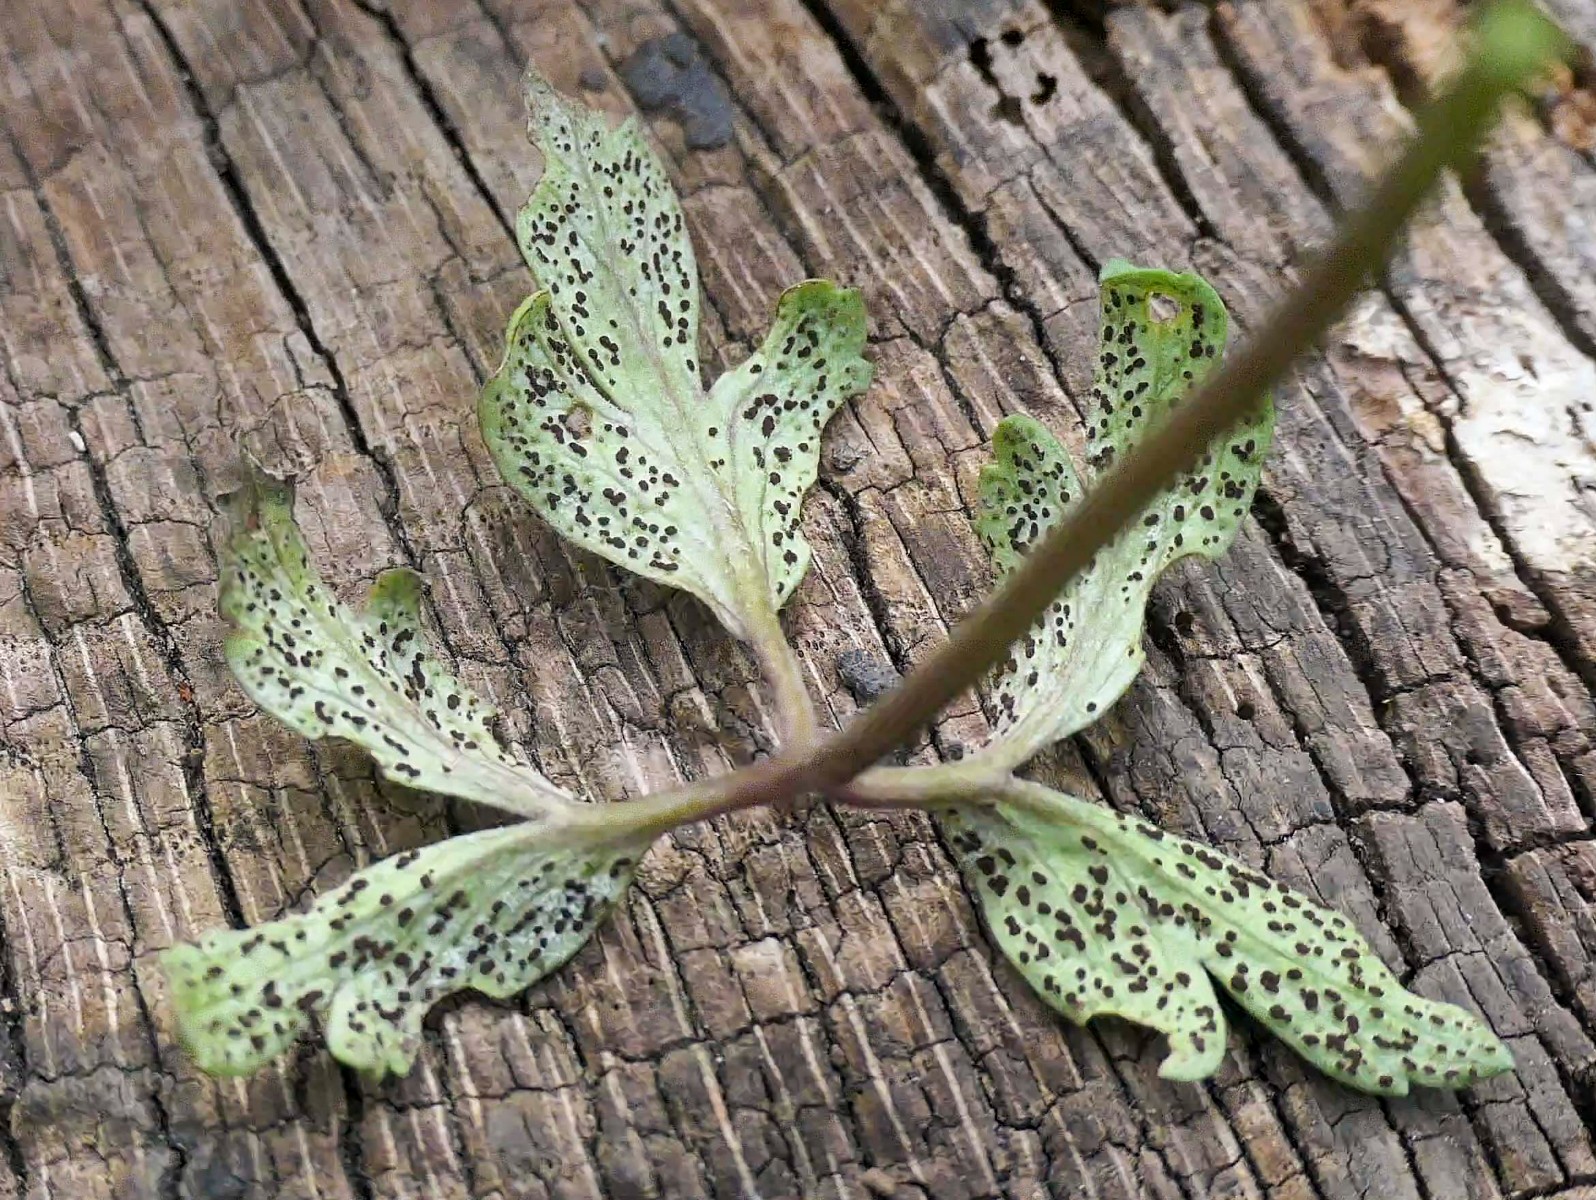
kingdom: Fungi
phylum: Basidiomycota
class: Pucciniomycetes
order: Pucciniales
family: Tranzscheliaceae
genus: Tranzschelia
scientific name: Tranzschelia anemones
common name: anemone-knæksporerust
